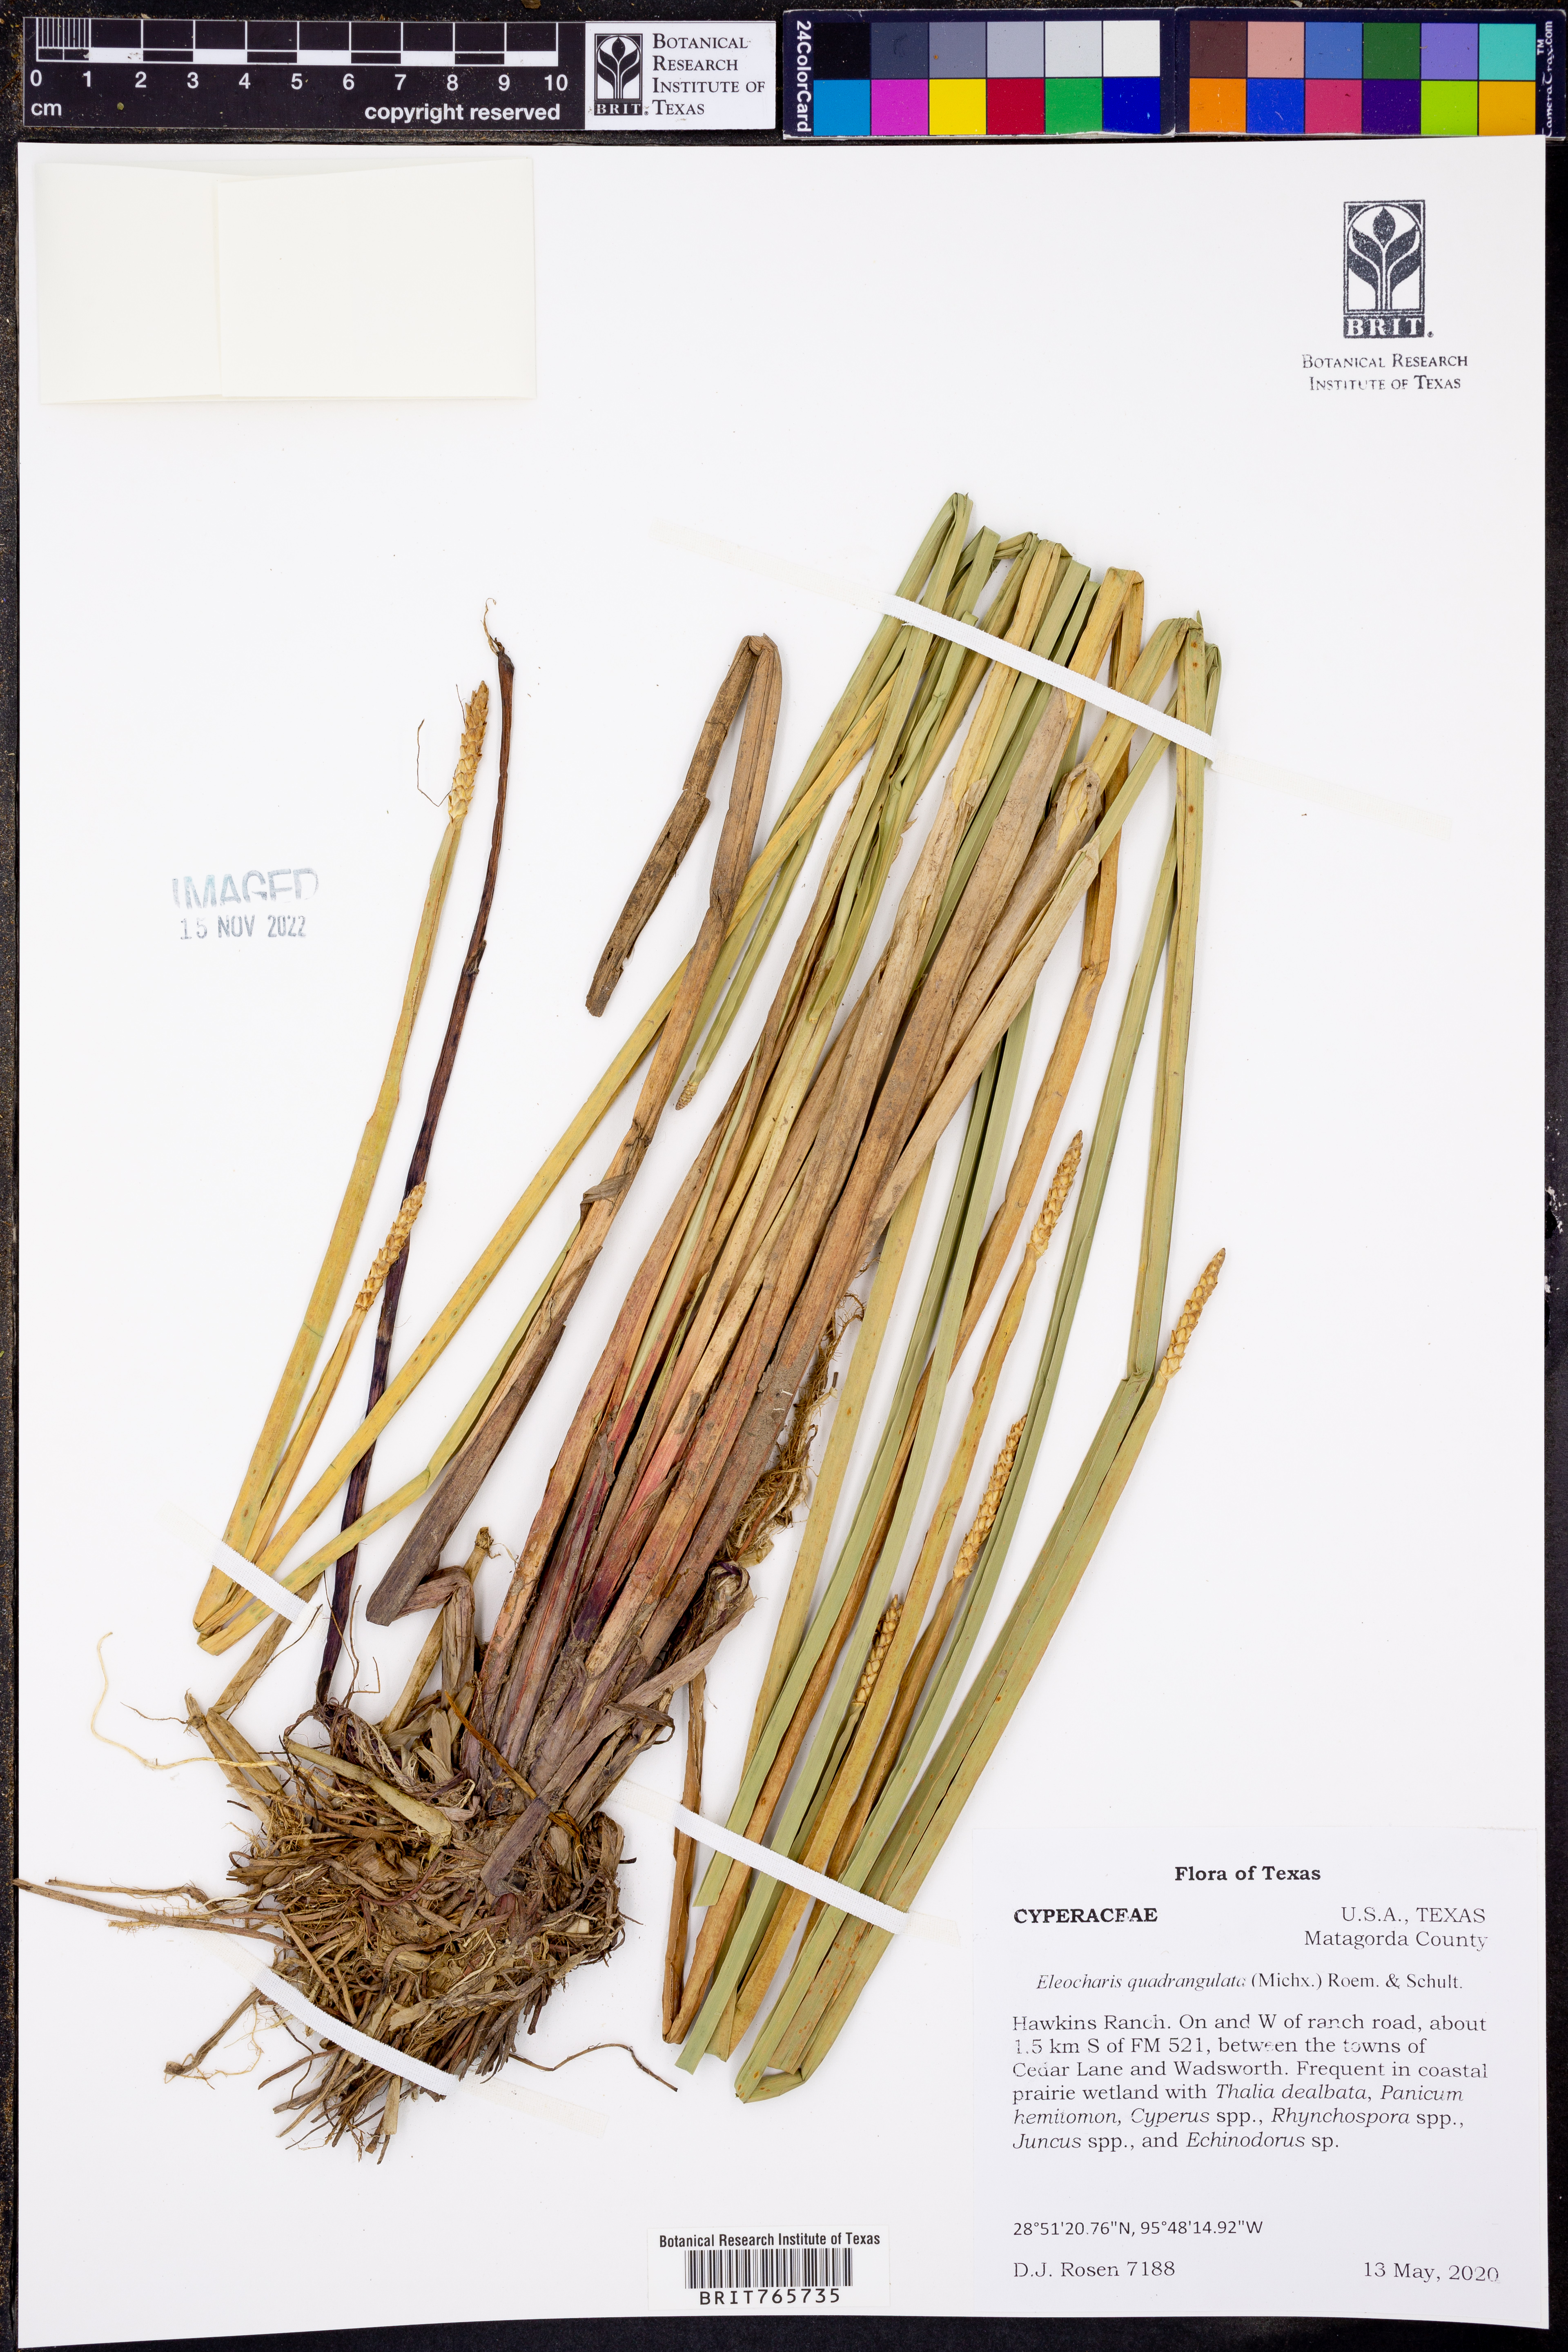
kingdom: Plantae
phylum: Tracheophyta
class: Liliopsida
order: Poales
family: Cyperaceae
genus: Eleocharis
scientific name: Eleocharis quadrangulata
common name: Square-stem spike-rush
